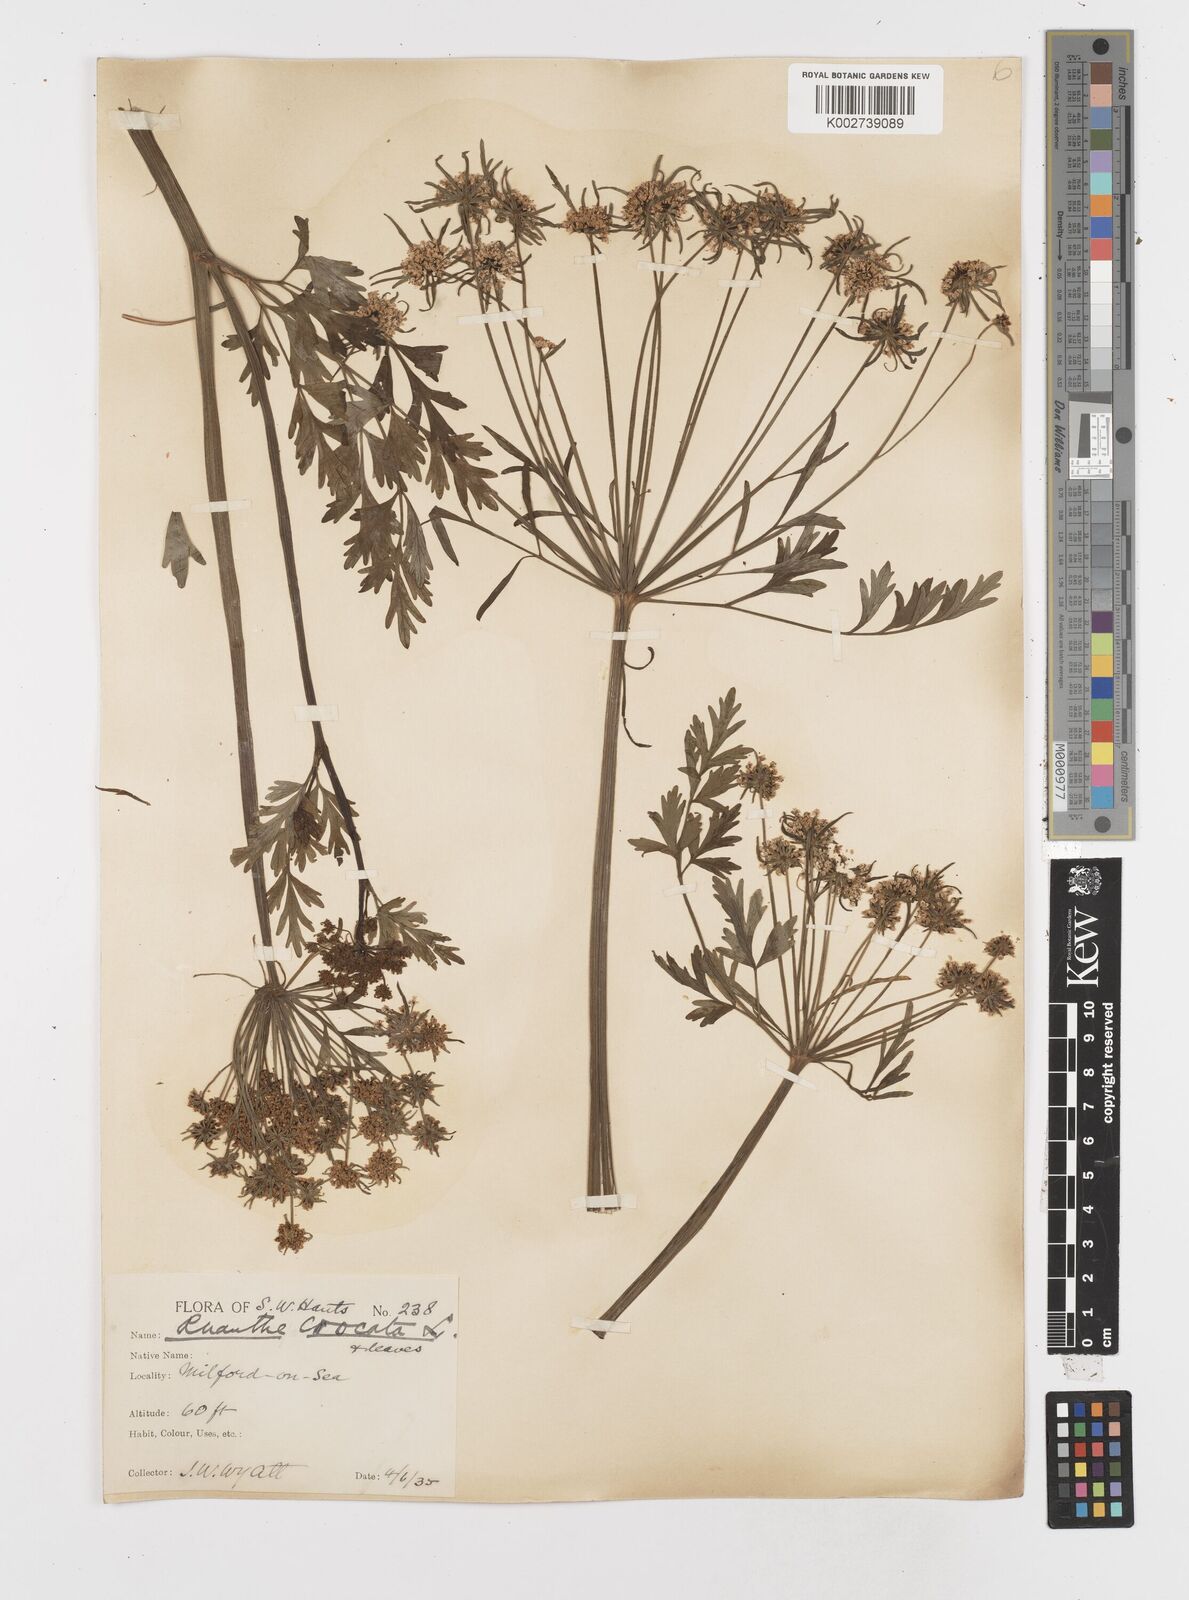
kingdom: Plantae
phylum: Tracheophyta
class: Magnoliopsida
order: Apiales
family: Apiaceae
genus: Oenanthe
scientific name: Oenanthe crocata
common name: Hemlock water-dropwort
